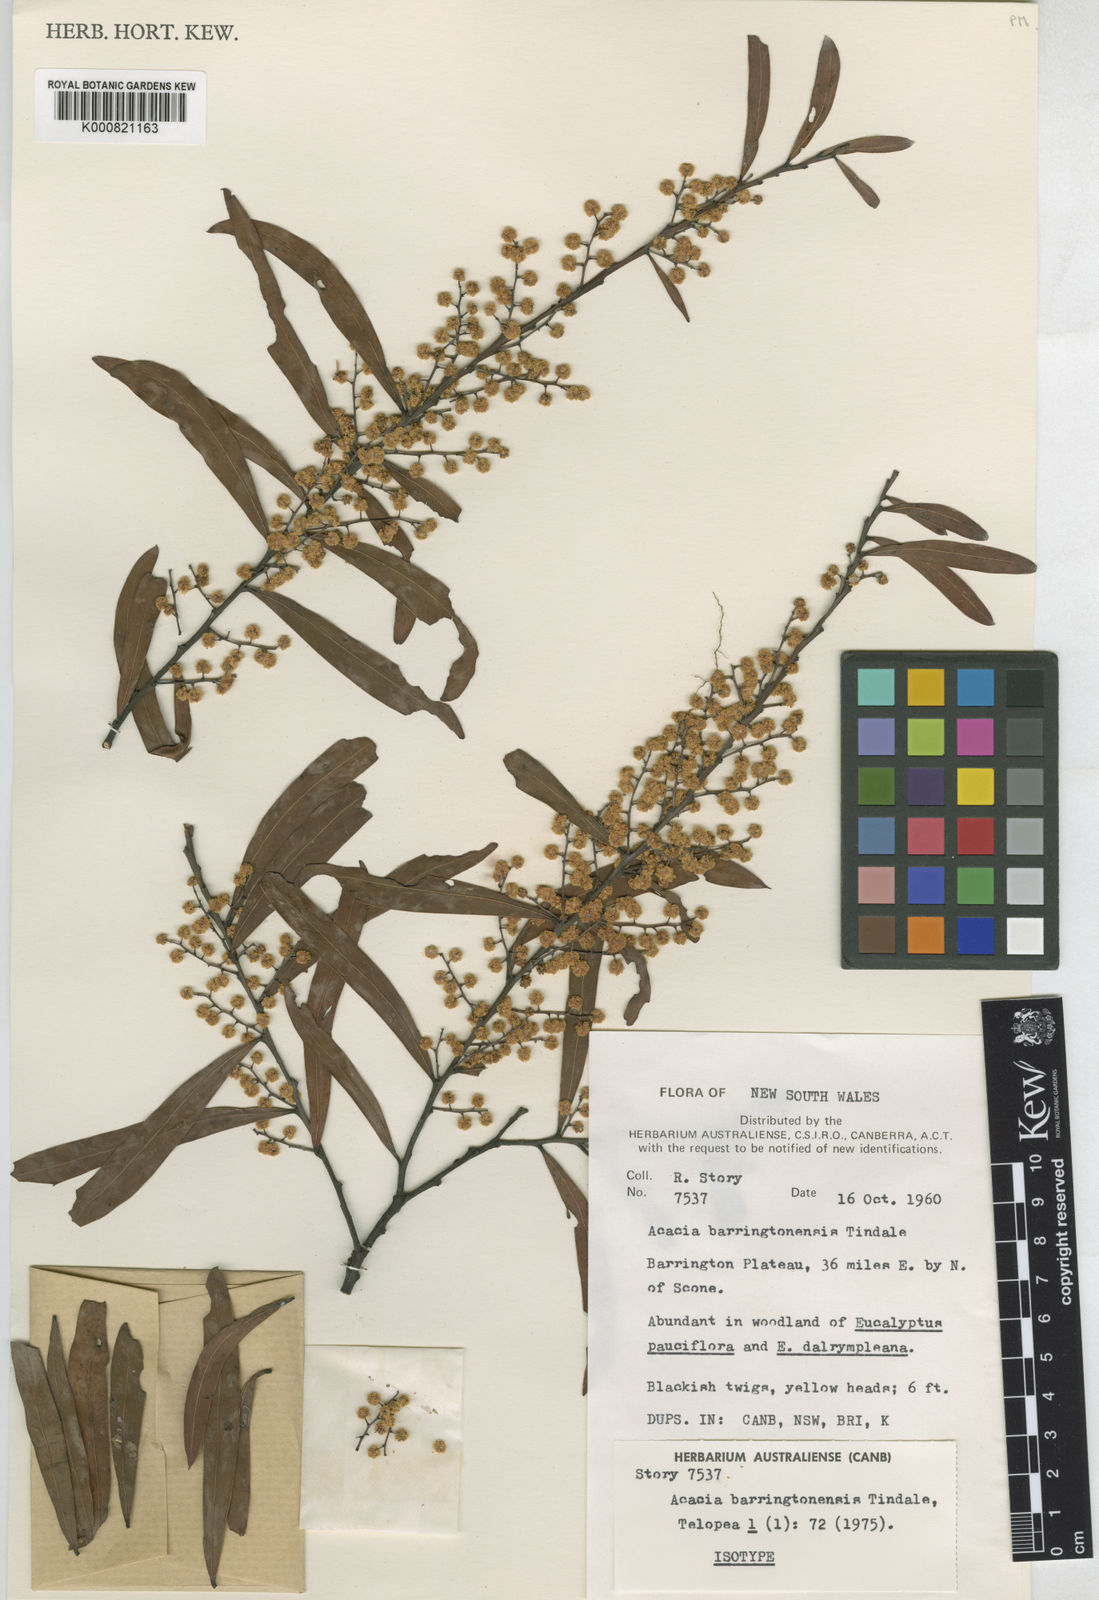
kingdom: Plantae
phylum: Tracheophyta
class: Magnoliopsida
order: Fabales
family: Fabaceae
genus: Acacia
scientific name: Acacia barringtonensis
